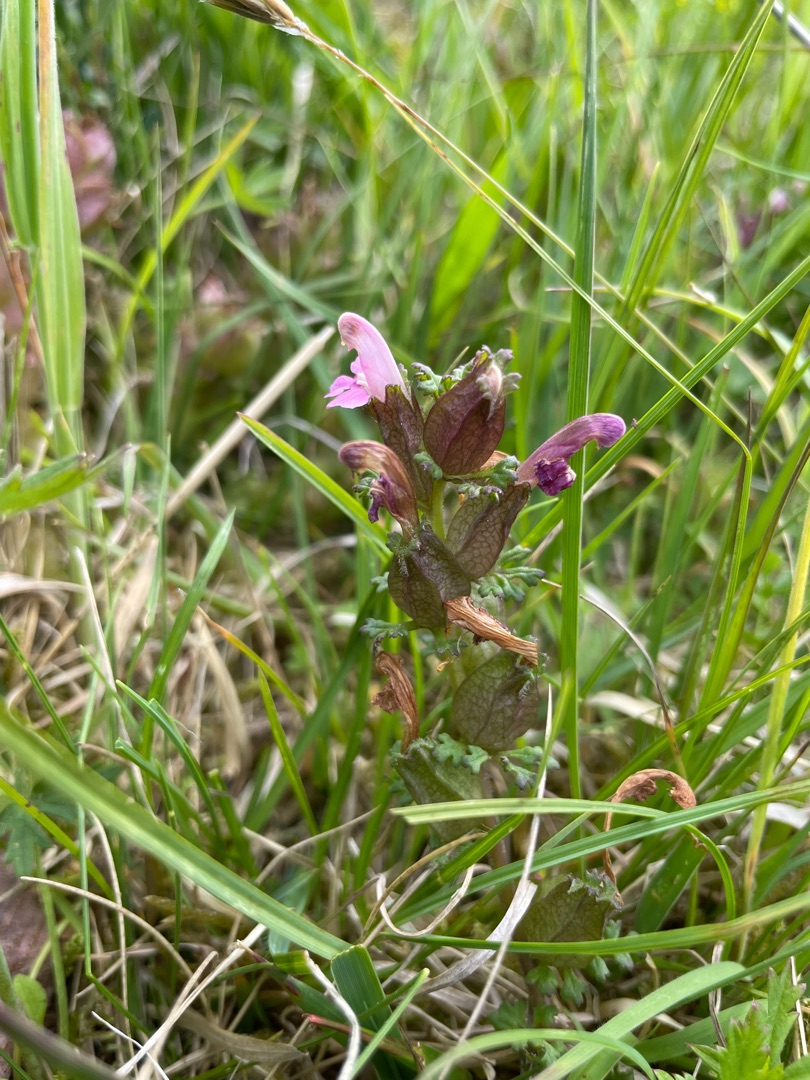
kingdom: Plantae
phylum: Tracheophyta
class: Magnoliopsida
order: Lamiales
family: Orobanchaceae
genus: Pedicularis
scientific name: Pedicularis sylvatica
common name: Mose-troldurt
